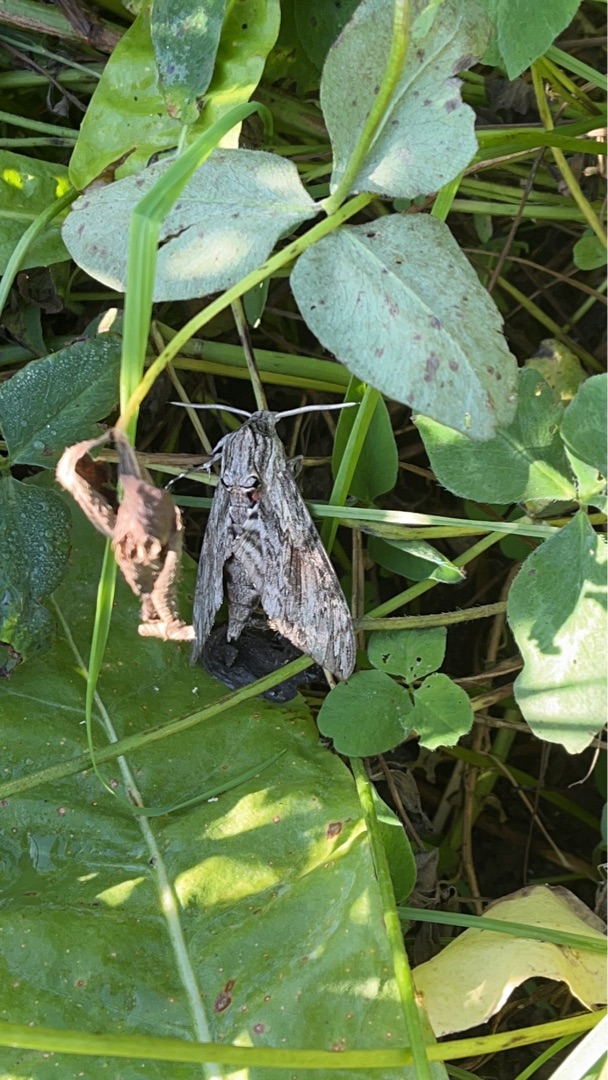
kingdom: Animalia
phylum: Arthropoda
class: Insecta
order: Lepidoptera
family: Sphingidae
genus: Agrius
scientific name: Agrius convolvuli
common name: Snerlesværmer
